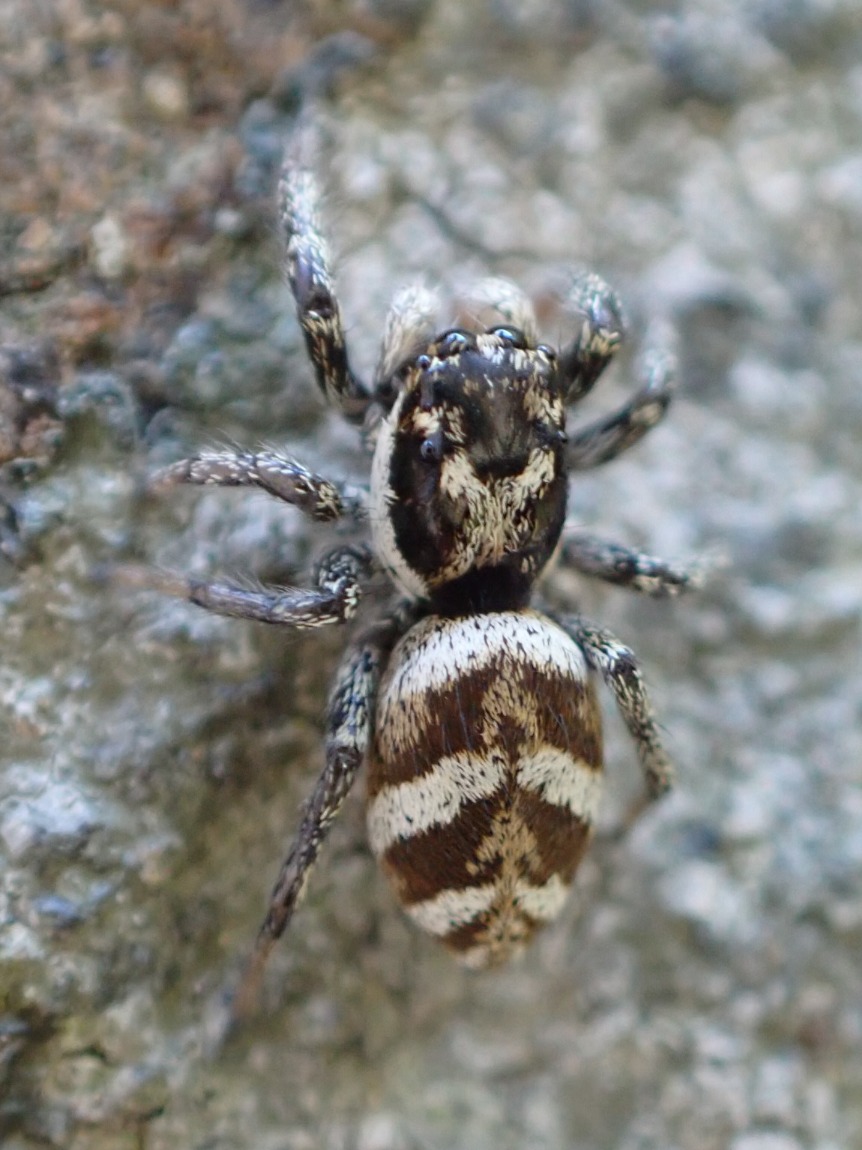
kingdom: Animalia
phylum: Arthropoda
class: Arachnida
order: Araneae
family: Salticidae
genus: Salticus
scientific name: Salticus scenicus
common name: Almindelig zebraedderkop
